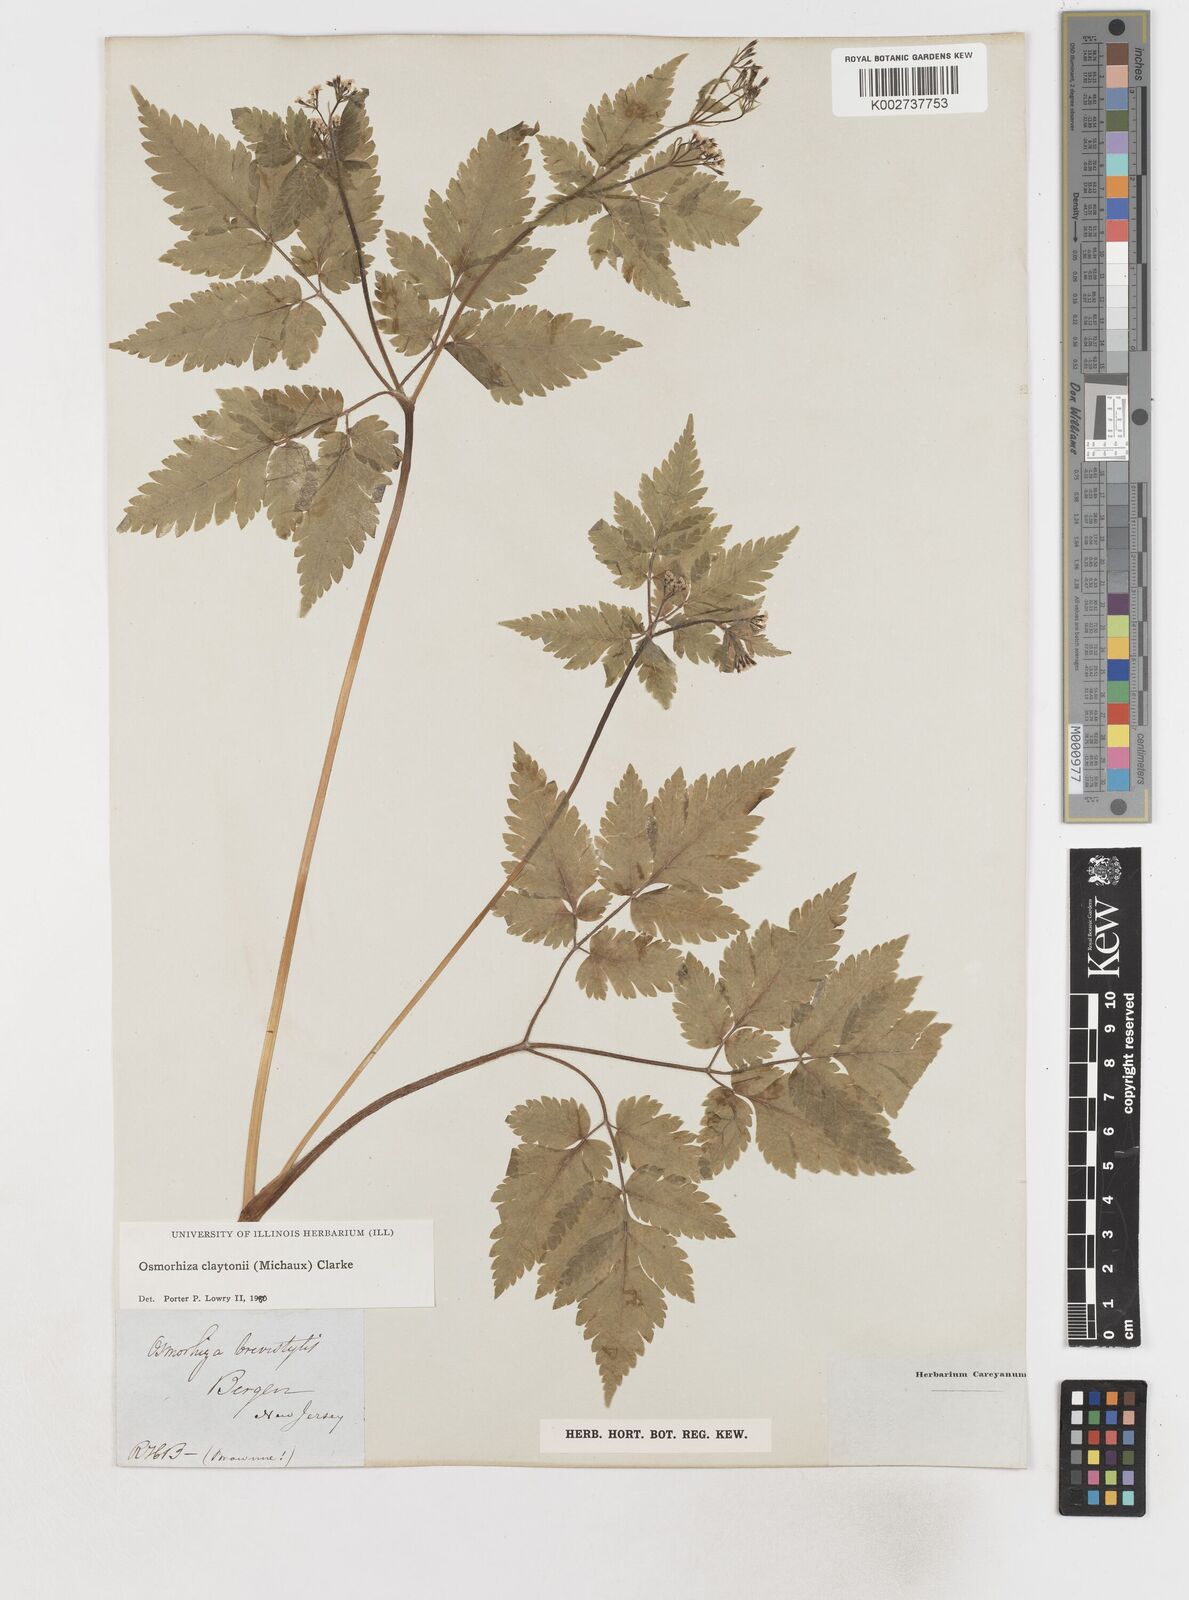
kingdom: Plantae
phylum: Tracheophyta
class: Magnoliopsida
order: Apiales
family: Apiaceae
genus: Osmorhiza
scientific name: Osmorhiza claytonii
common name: Hairy sweet cicely
